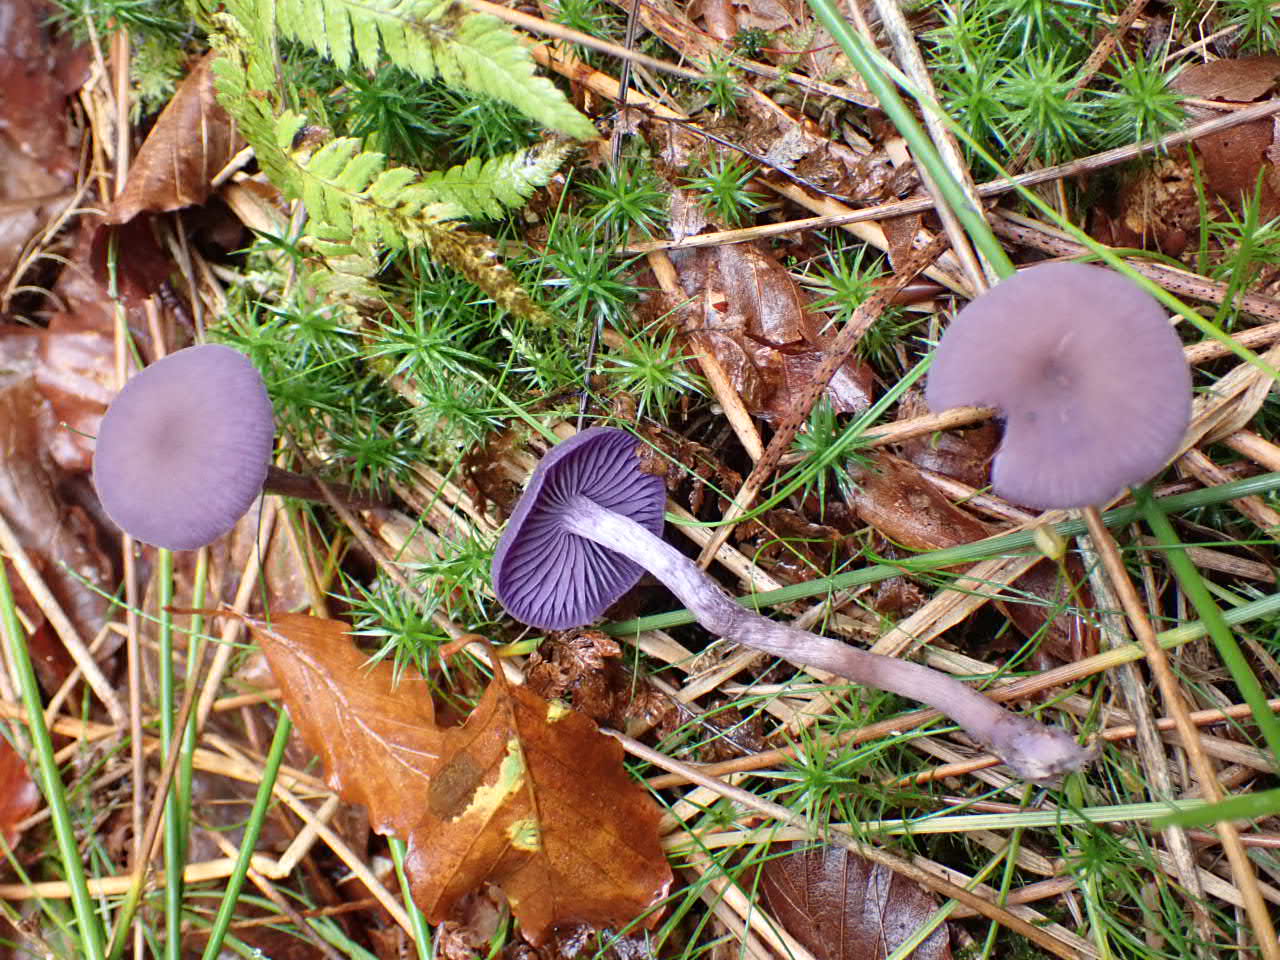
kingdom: Fungi
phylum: Basidiomycota
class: Agaricomycetes
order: Agaricales
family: Hydnangiaceae
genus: Laccaria
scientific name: Laccaria amethystina
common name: violet ametysthat
